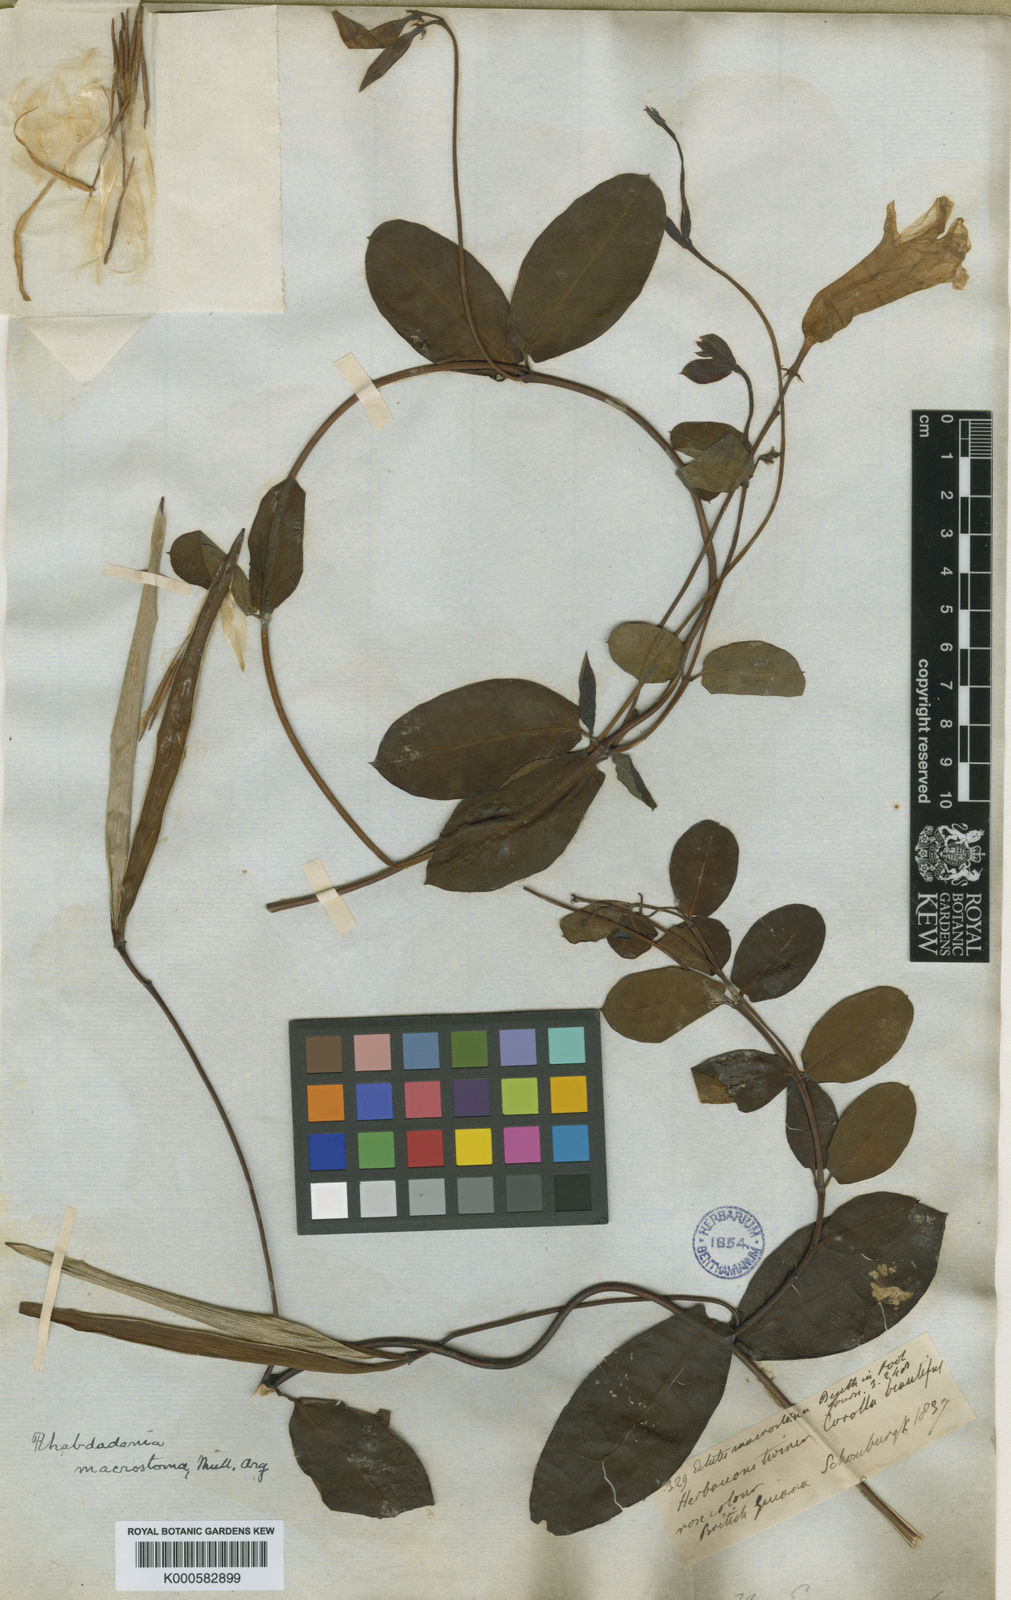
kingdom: Plantae
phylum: Tracheophyta
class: Magnoliopsida
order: Gentianales
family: Apocynaceae
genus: Rhabdadenia
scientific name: Rhabdadenia madida
